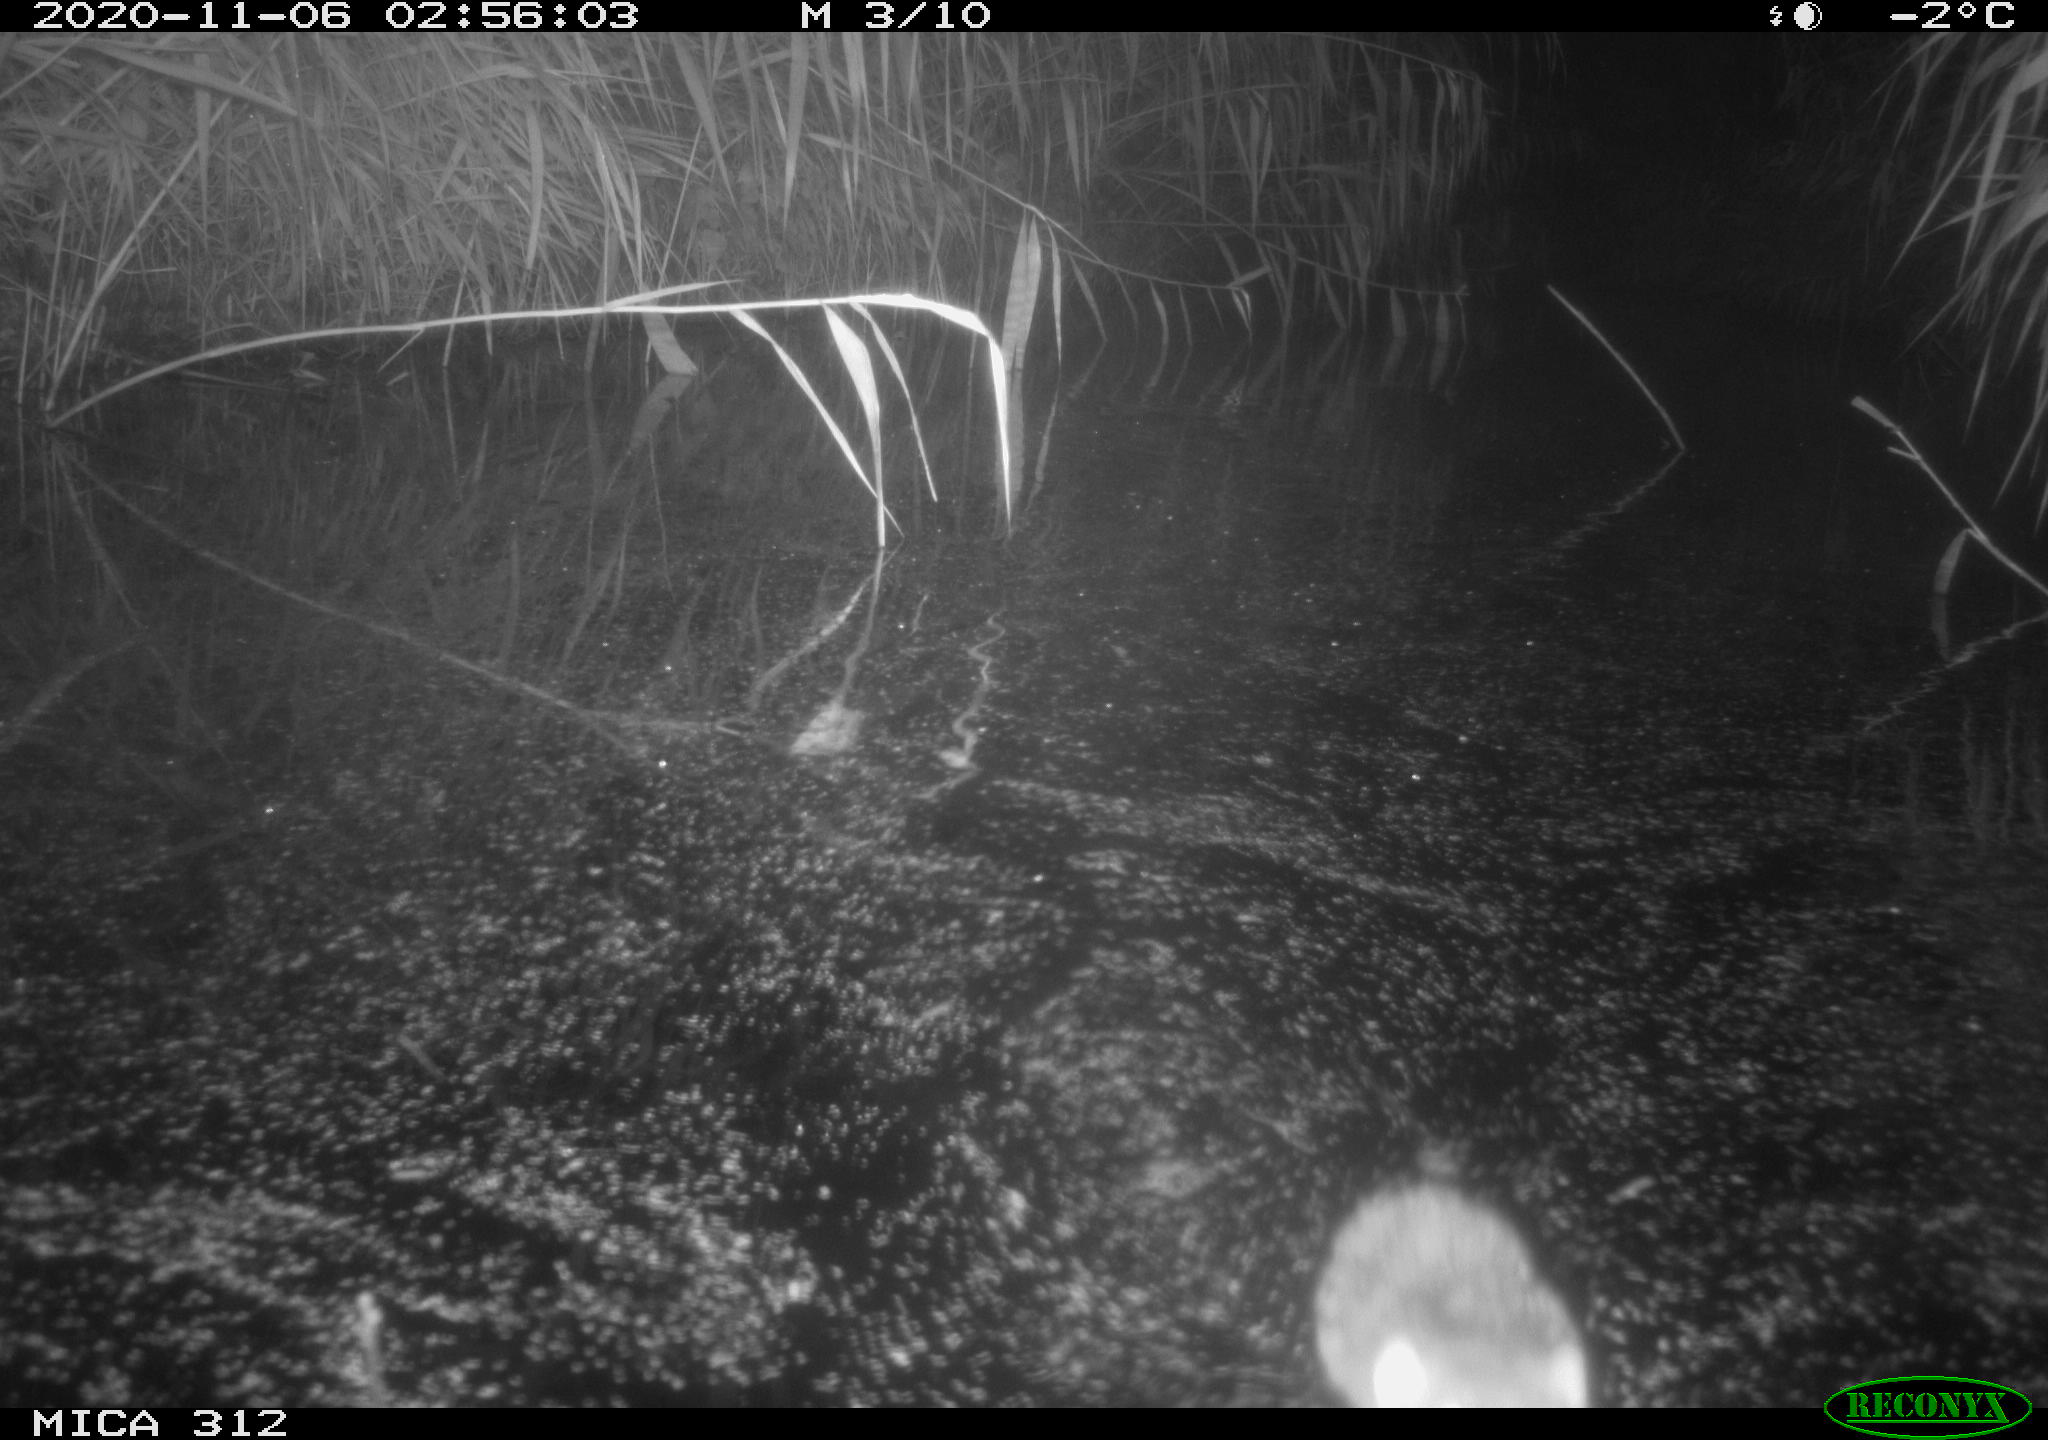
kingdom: Animalia
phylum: Chordata
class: Mammalia
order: Rodentia
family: Muridae
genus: Rattus
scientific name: Rattus norvegicus
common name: Brown rat
